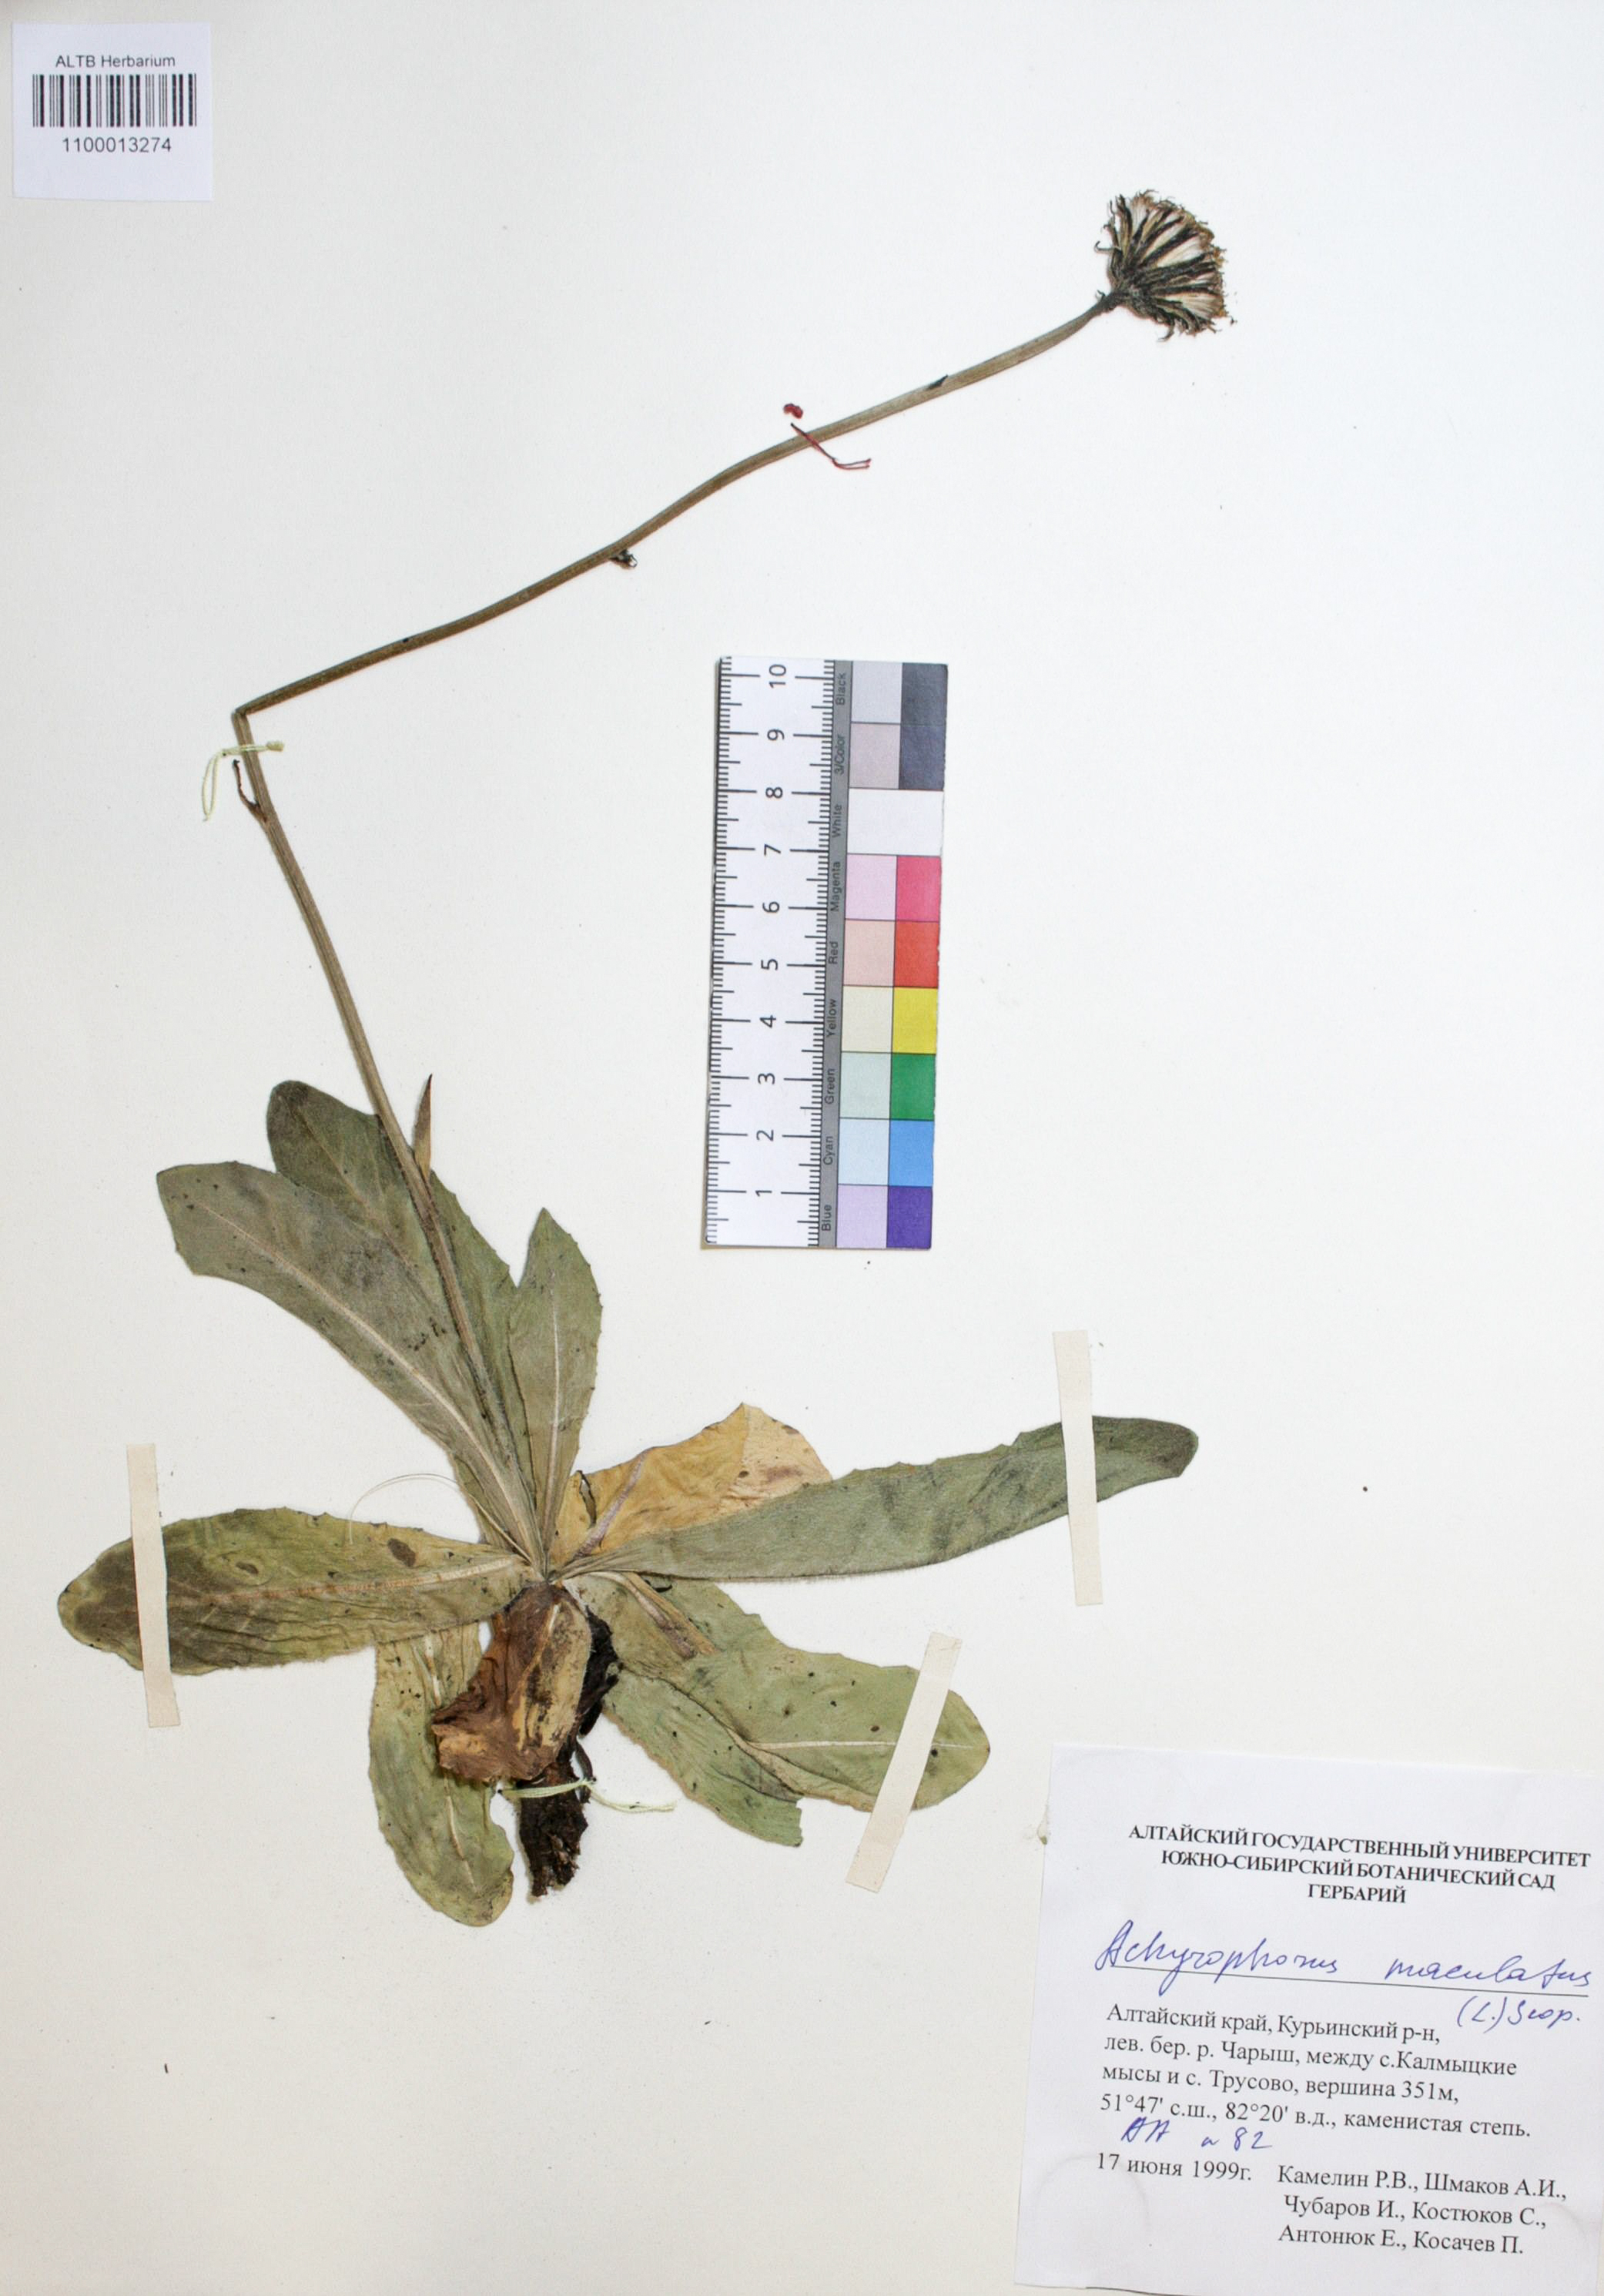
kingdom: Plantae
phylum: Tracheophyta
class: Magnoliopsida
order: Asterales
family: Asteraceae
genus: Trommsdorffia
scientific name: Trommsdorffia maculata
